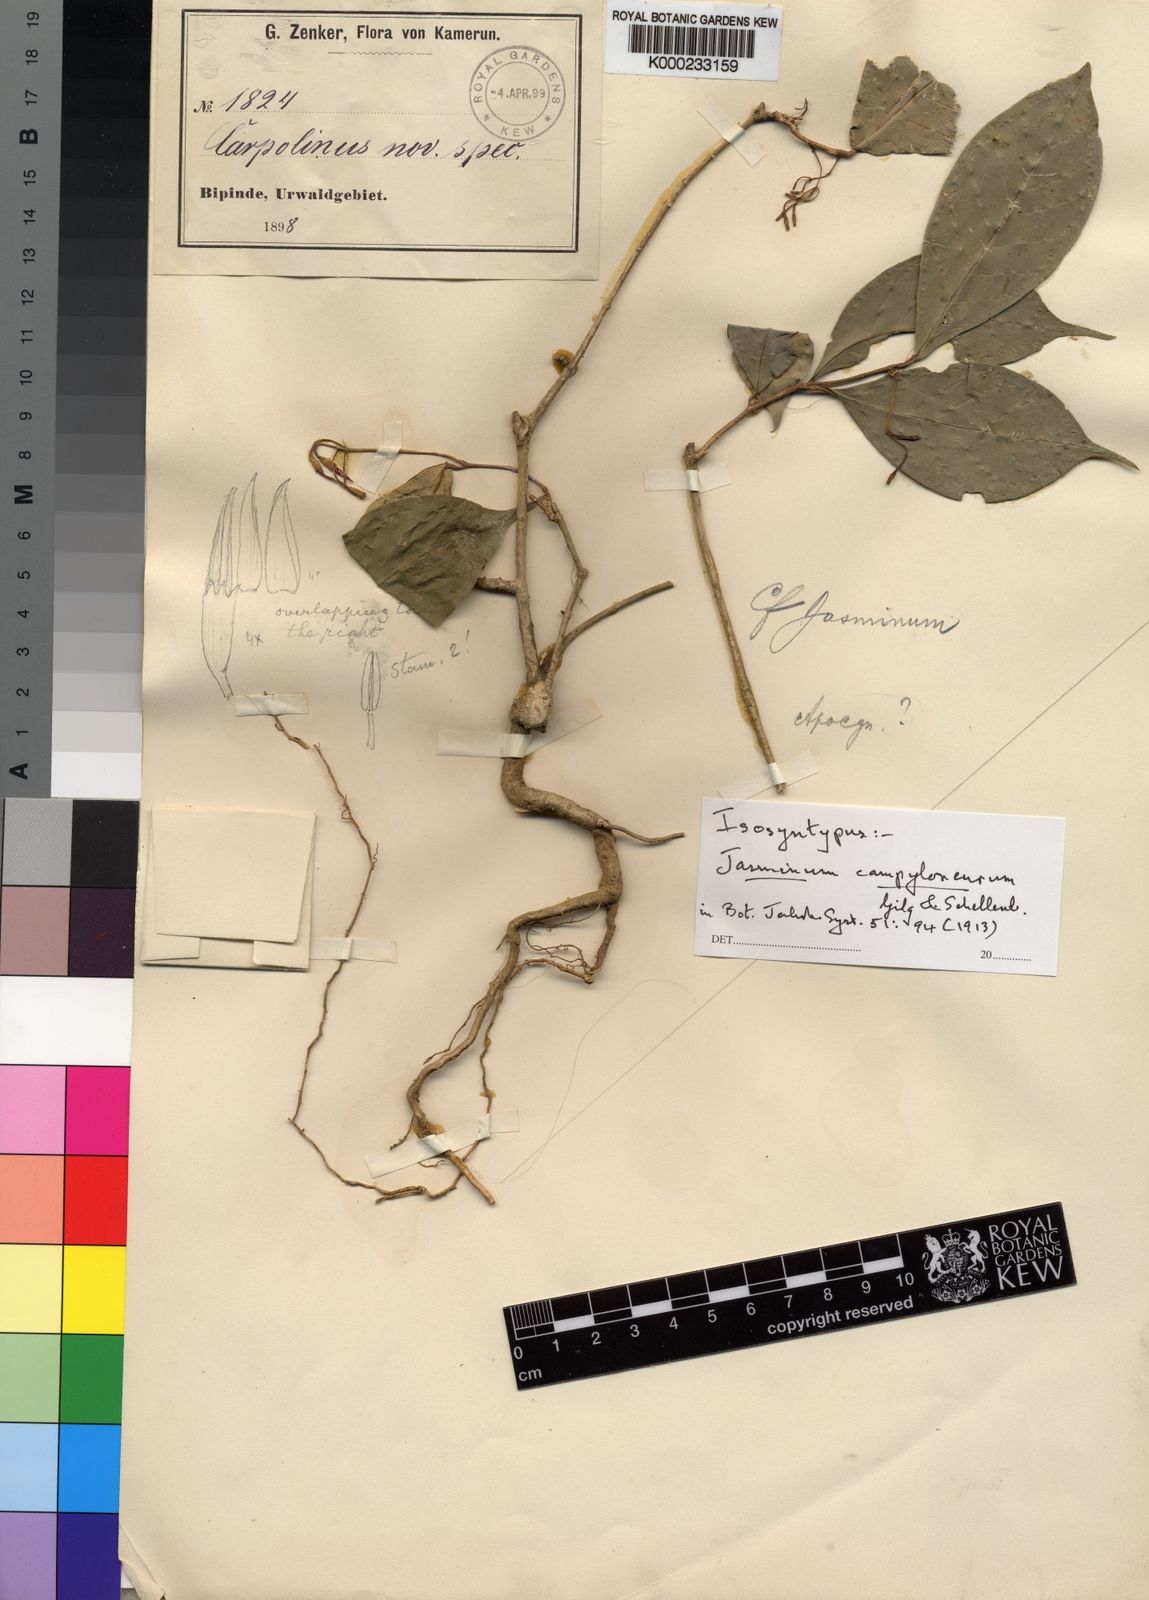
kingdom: Plantae
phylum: Tracheophyta
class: Magnoliopsida
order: Lamiales
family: Oleaceae
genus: Jasminum
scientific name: Jasminum campyloneurum
